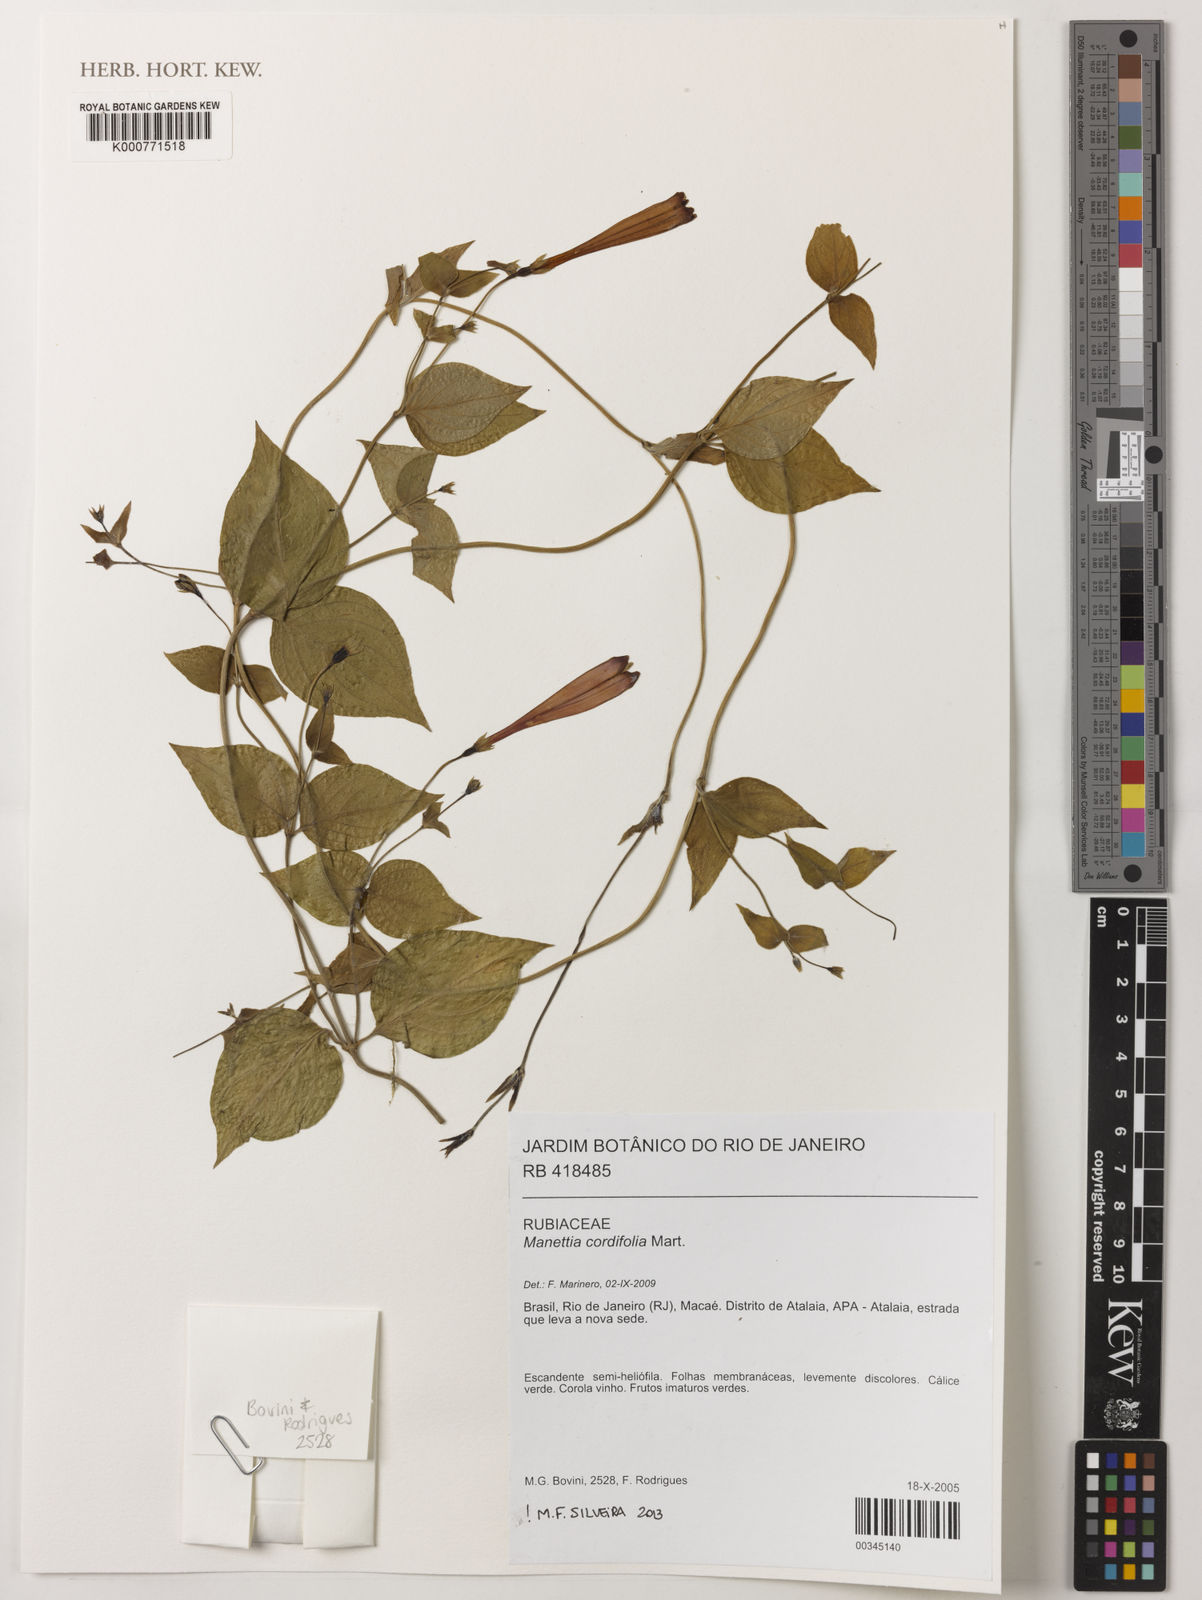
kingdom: Plantae
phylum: Tracheophyta
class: Magnoliopsida
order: Gentianales
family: Rubiaceae
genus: Manettia
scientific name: Manettia cordifolia
